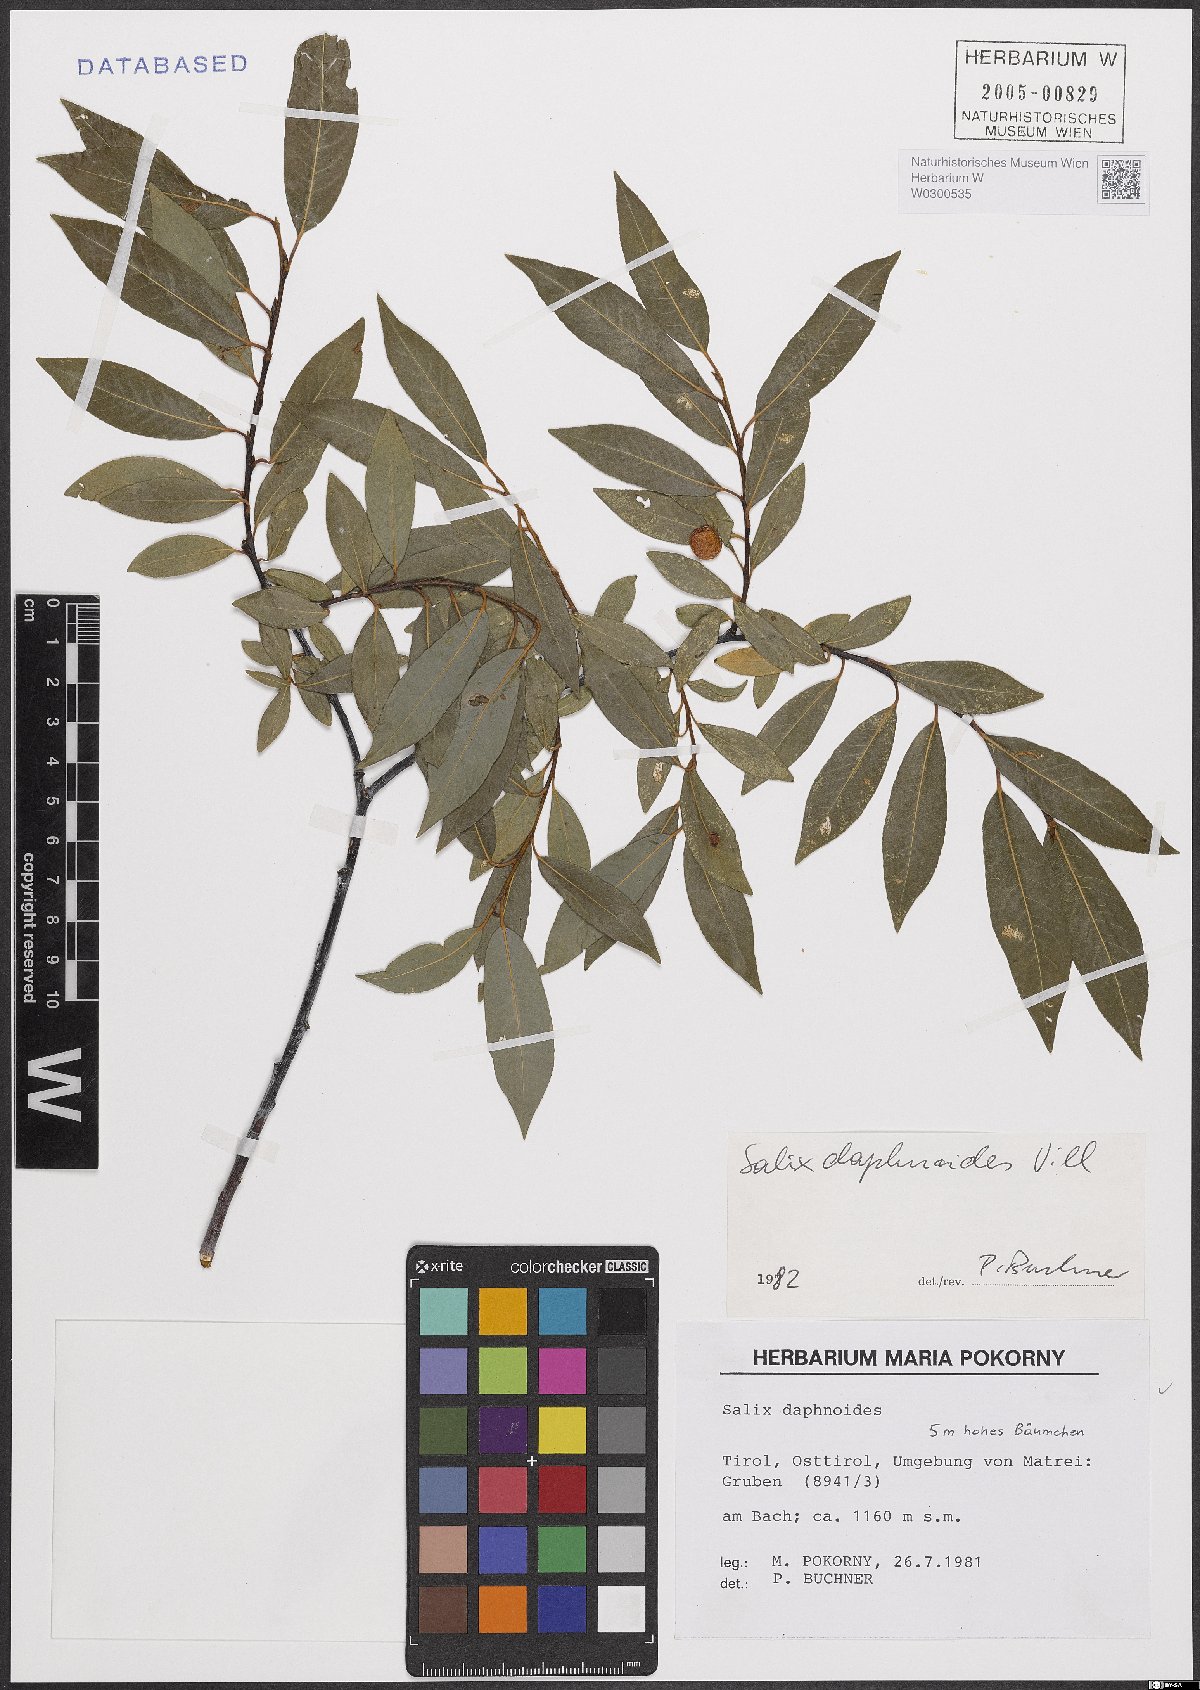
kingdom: Plantae
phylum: Tracheophyta
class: Magnoliopsida
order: Malpighiales
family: Salicaceae
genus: Salix
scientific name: Salix daphnoides
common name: European violet-willow
